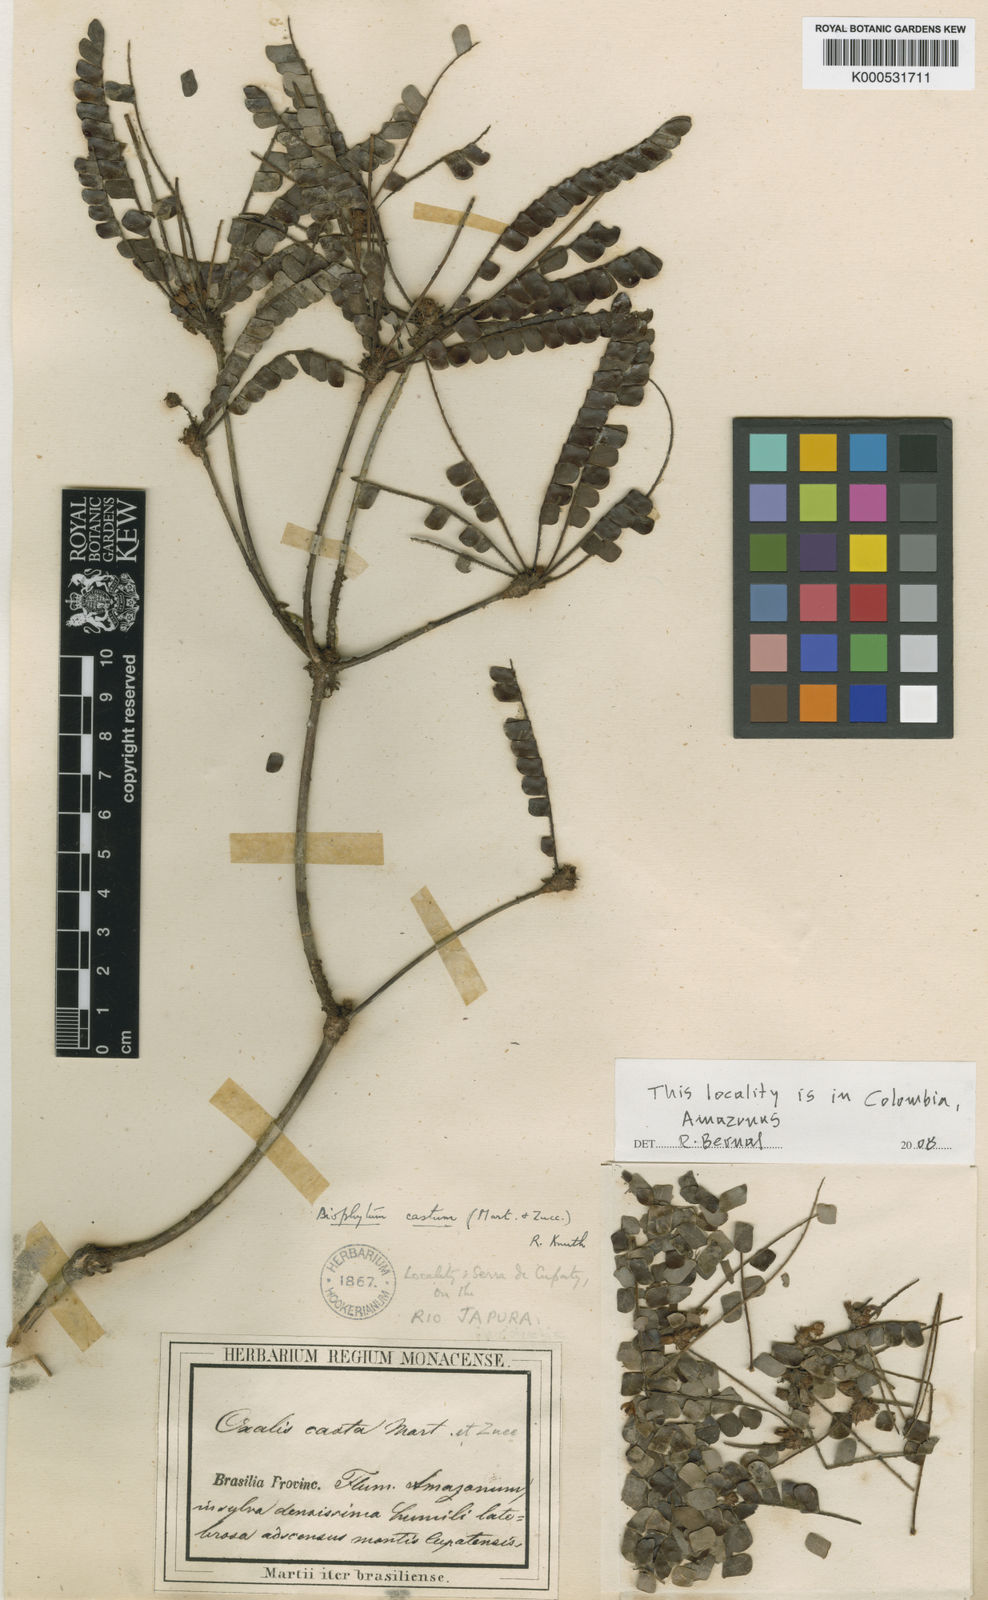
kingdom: Plantae
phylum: Tracheophyta
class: Magnoliopsida
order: Oxalidales
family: Oxalidaceae
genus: Biophytum
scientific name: Biophytum
